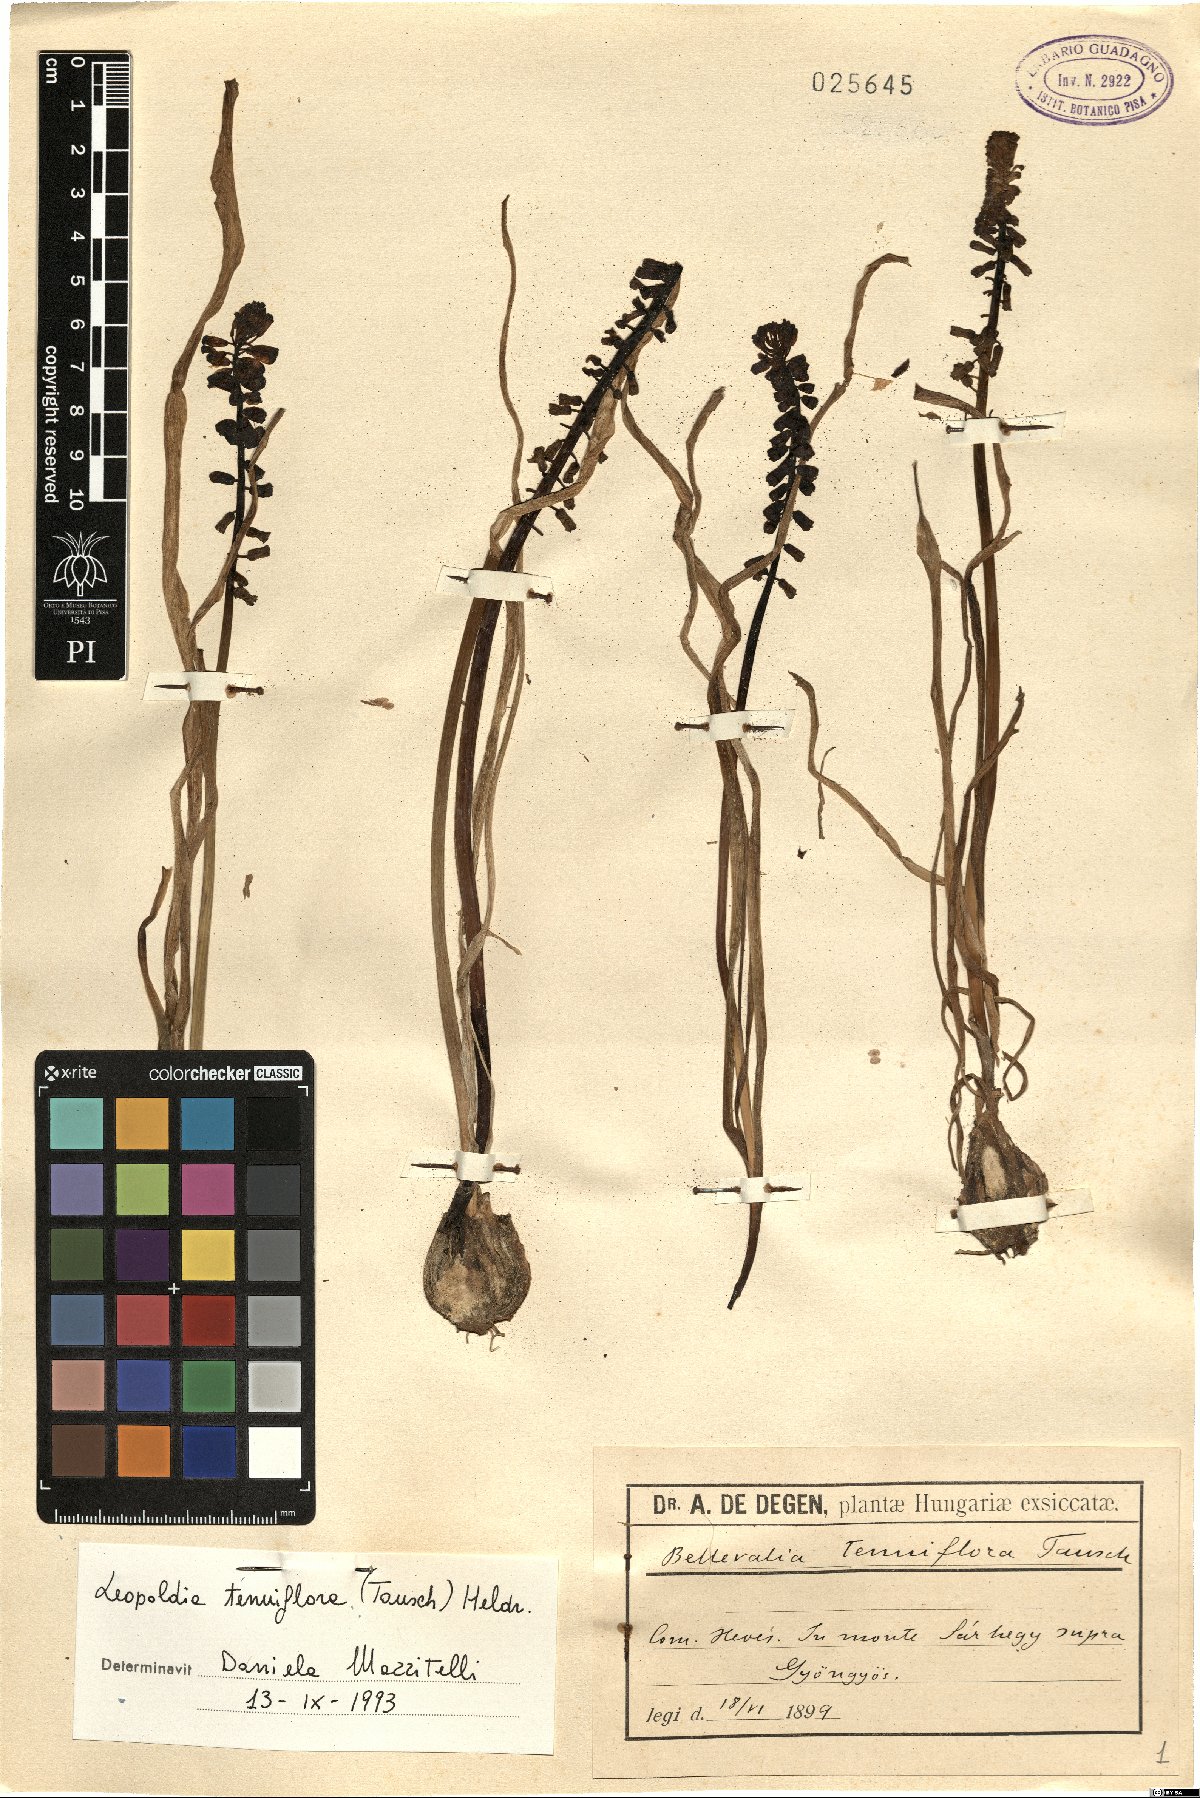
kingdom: Plantae
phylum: Tracheophyta
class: Liliopsida
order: Asparagales
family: Asparagaceae
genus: Muscari
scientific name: Muscari tenuiflorum
